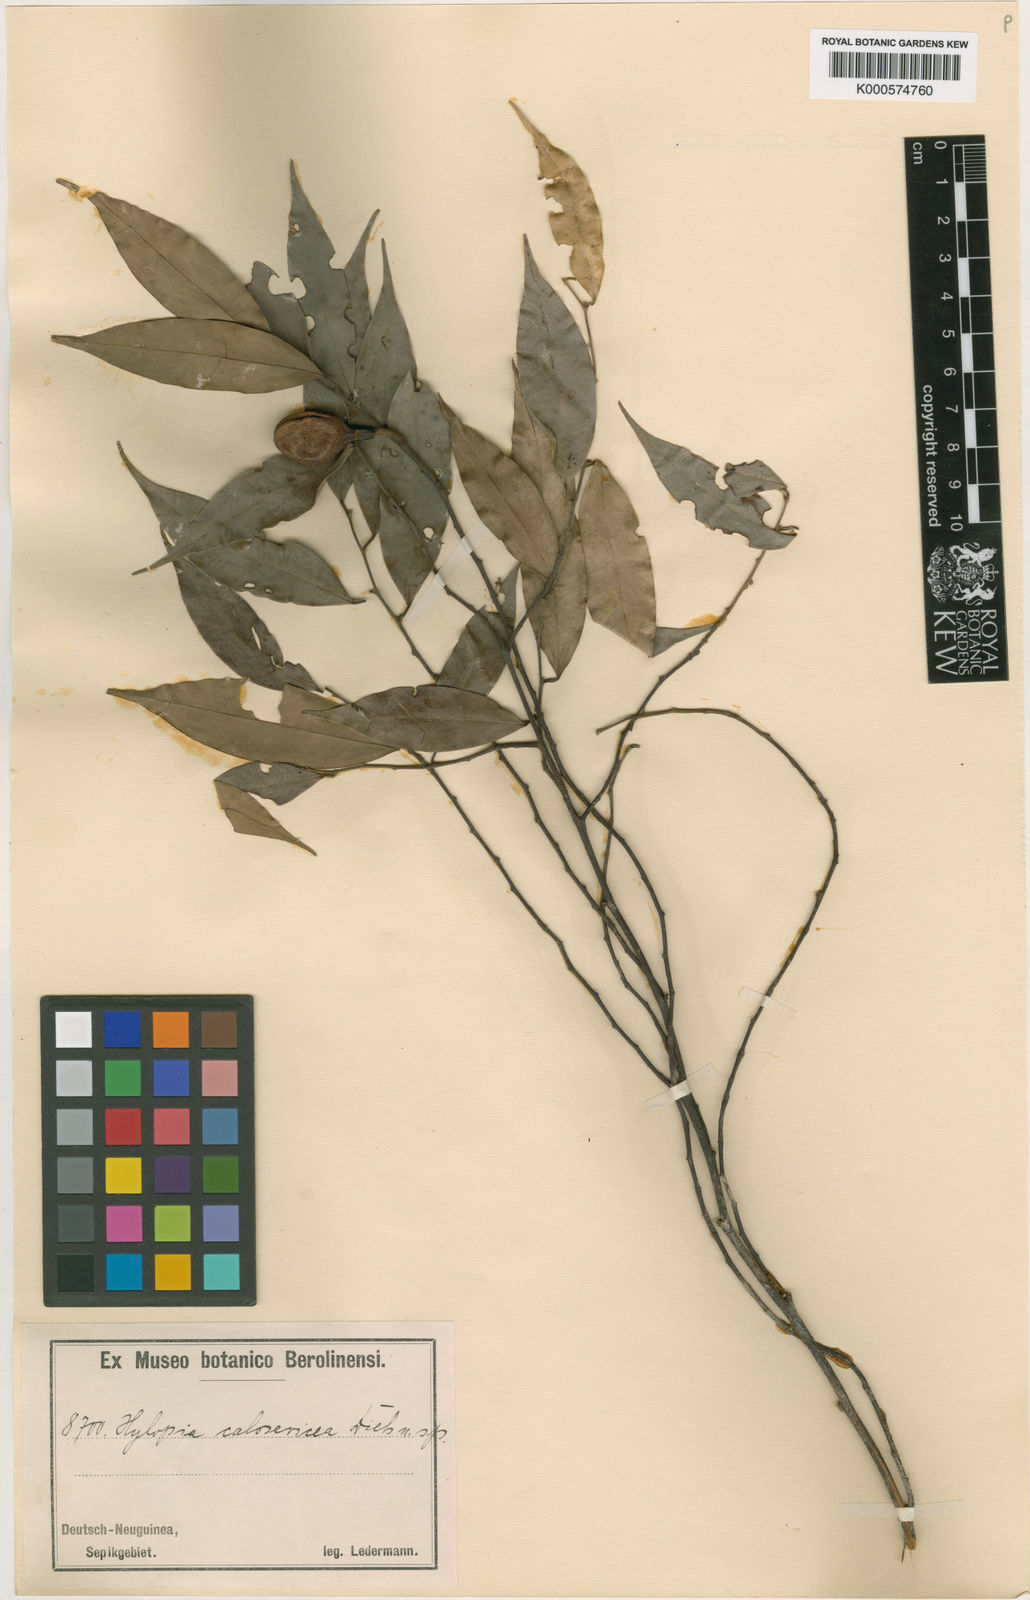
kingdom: Plantae
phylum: Tracheophyta
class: Magnoliopsida
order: Magnoliales
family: Annonaceae
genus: Xylopia
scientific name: Xylopia calosericea
